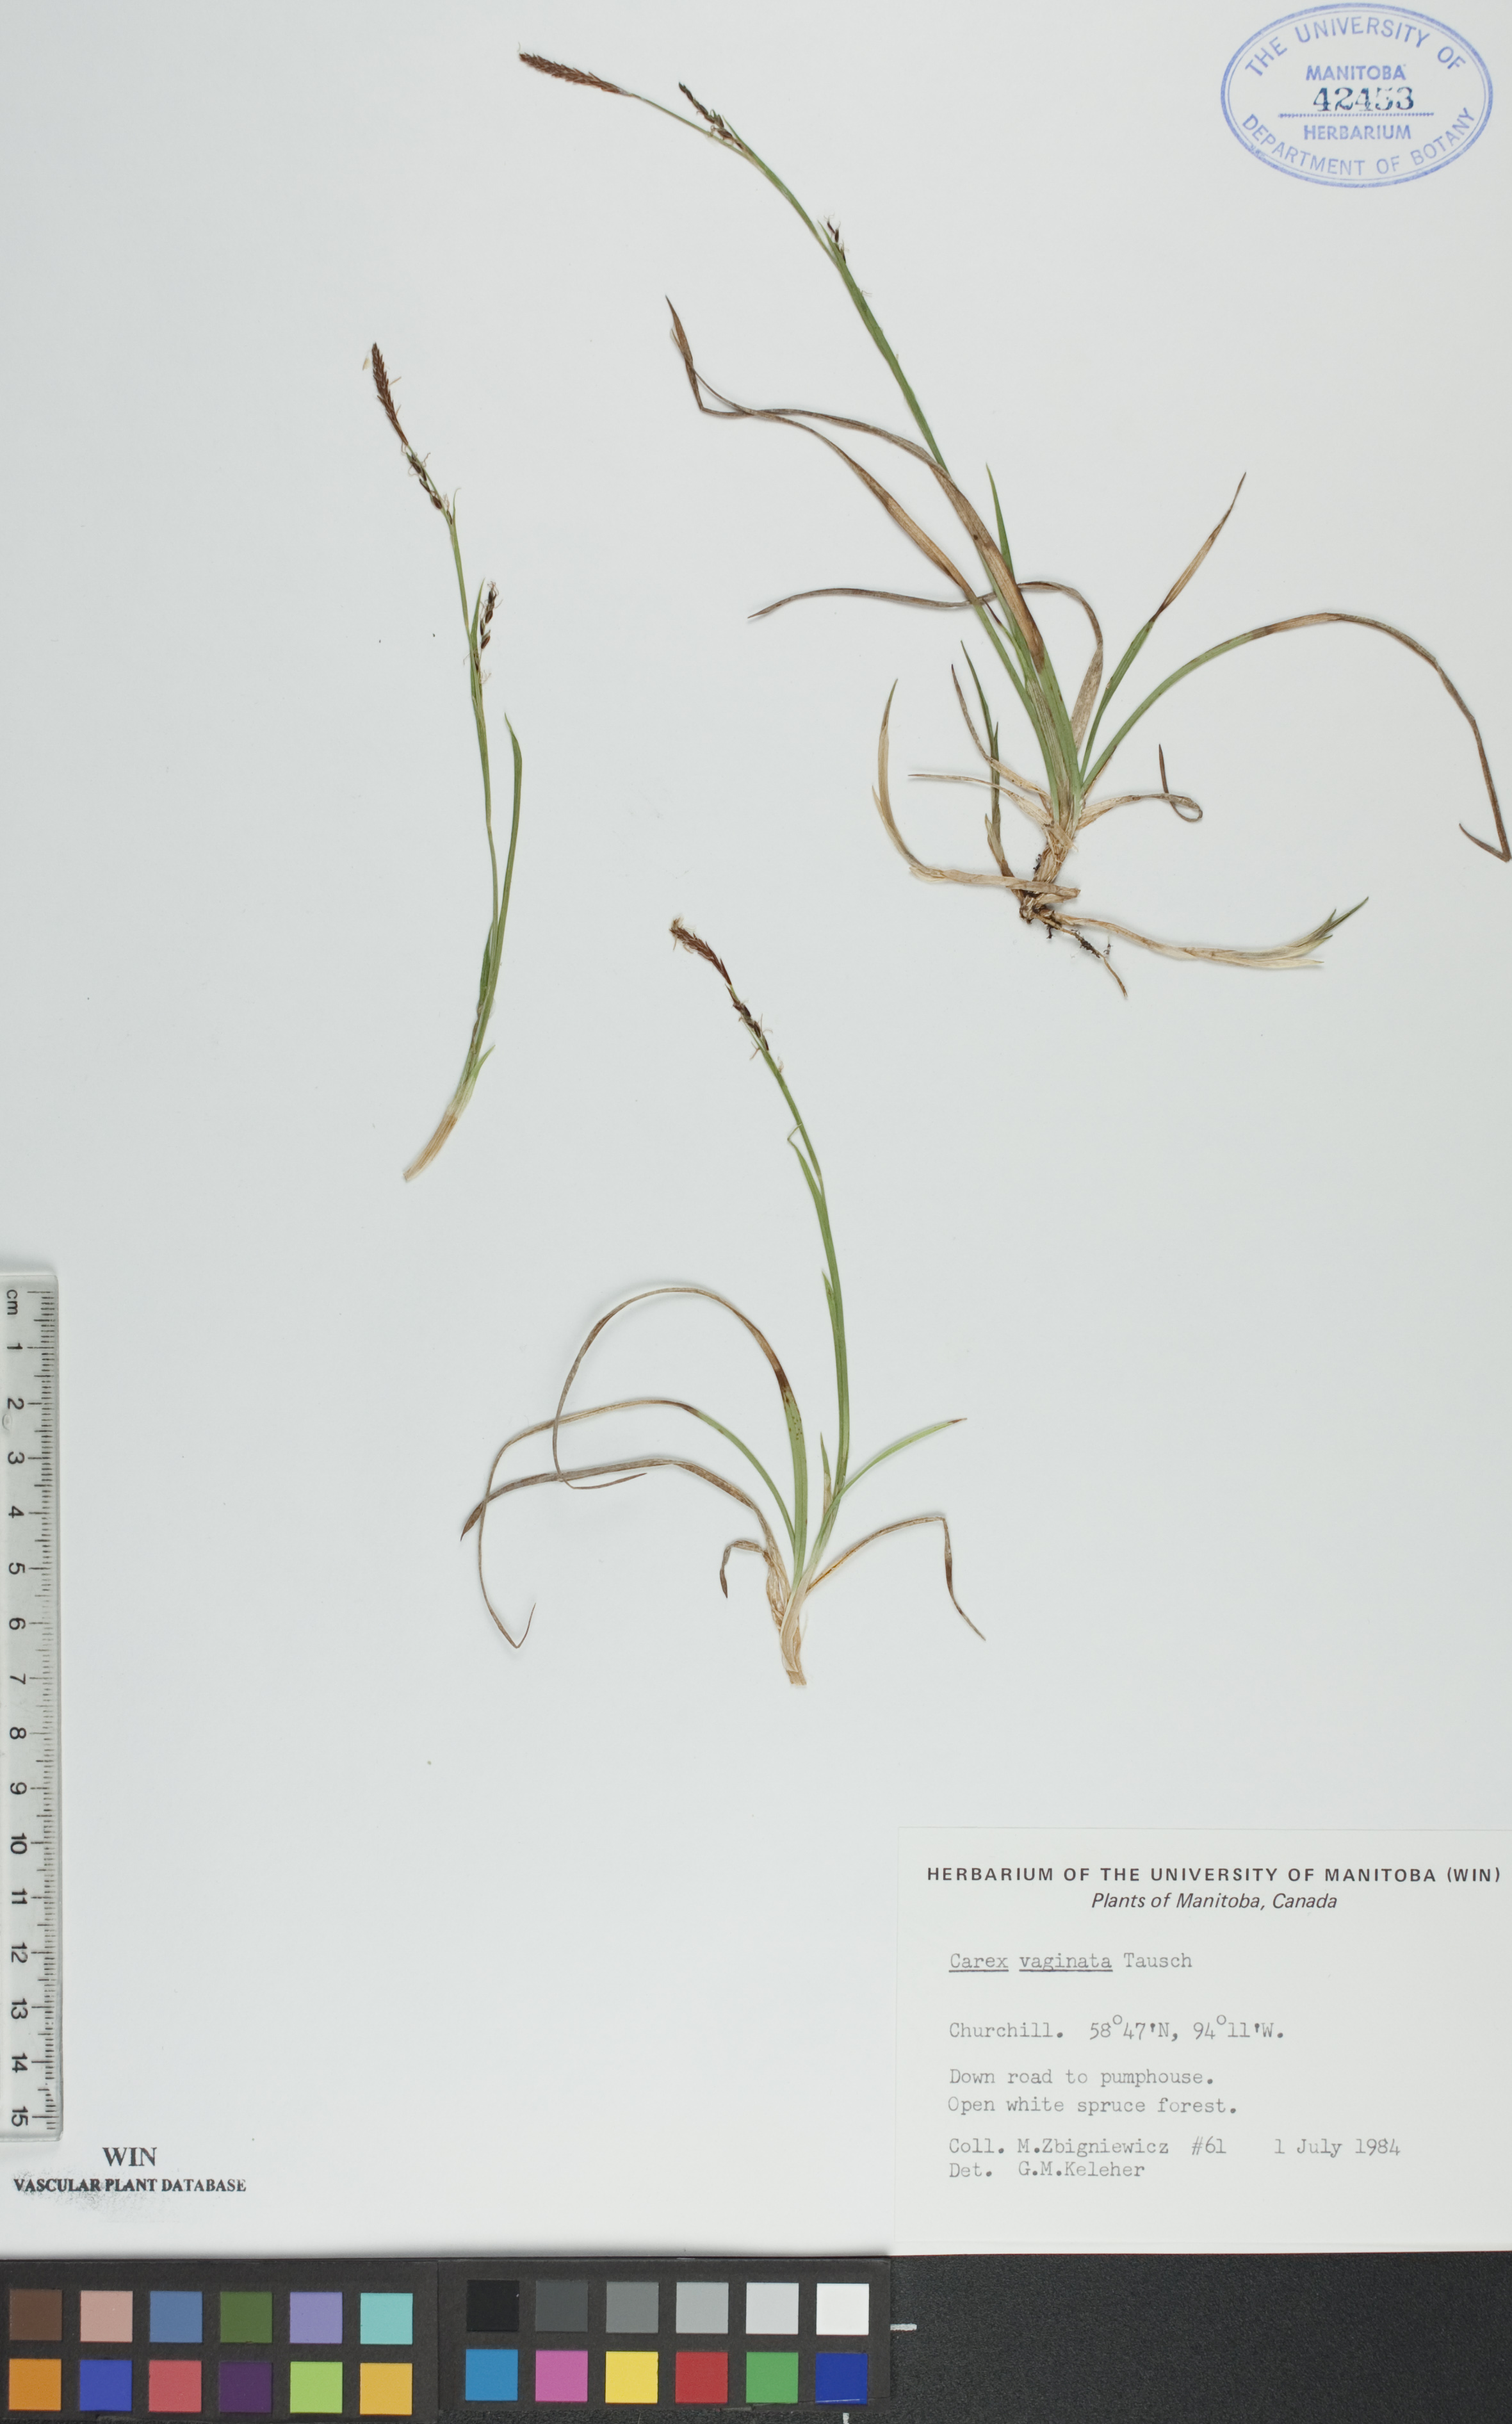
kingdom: Plantae
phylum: Tracheophyta
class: Liliopsida
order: Poales
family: Cyperaceae
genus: Carex
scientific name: Carex vaginata
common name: Sheathed sedge
